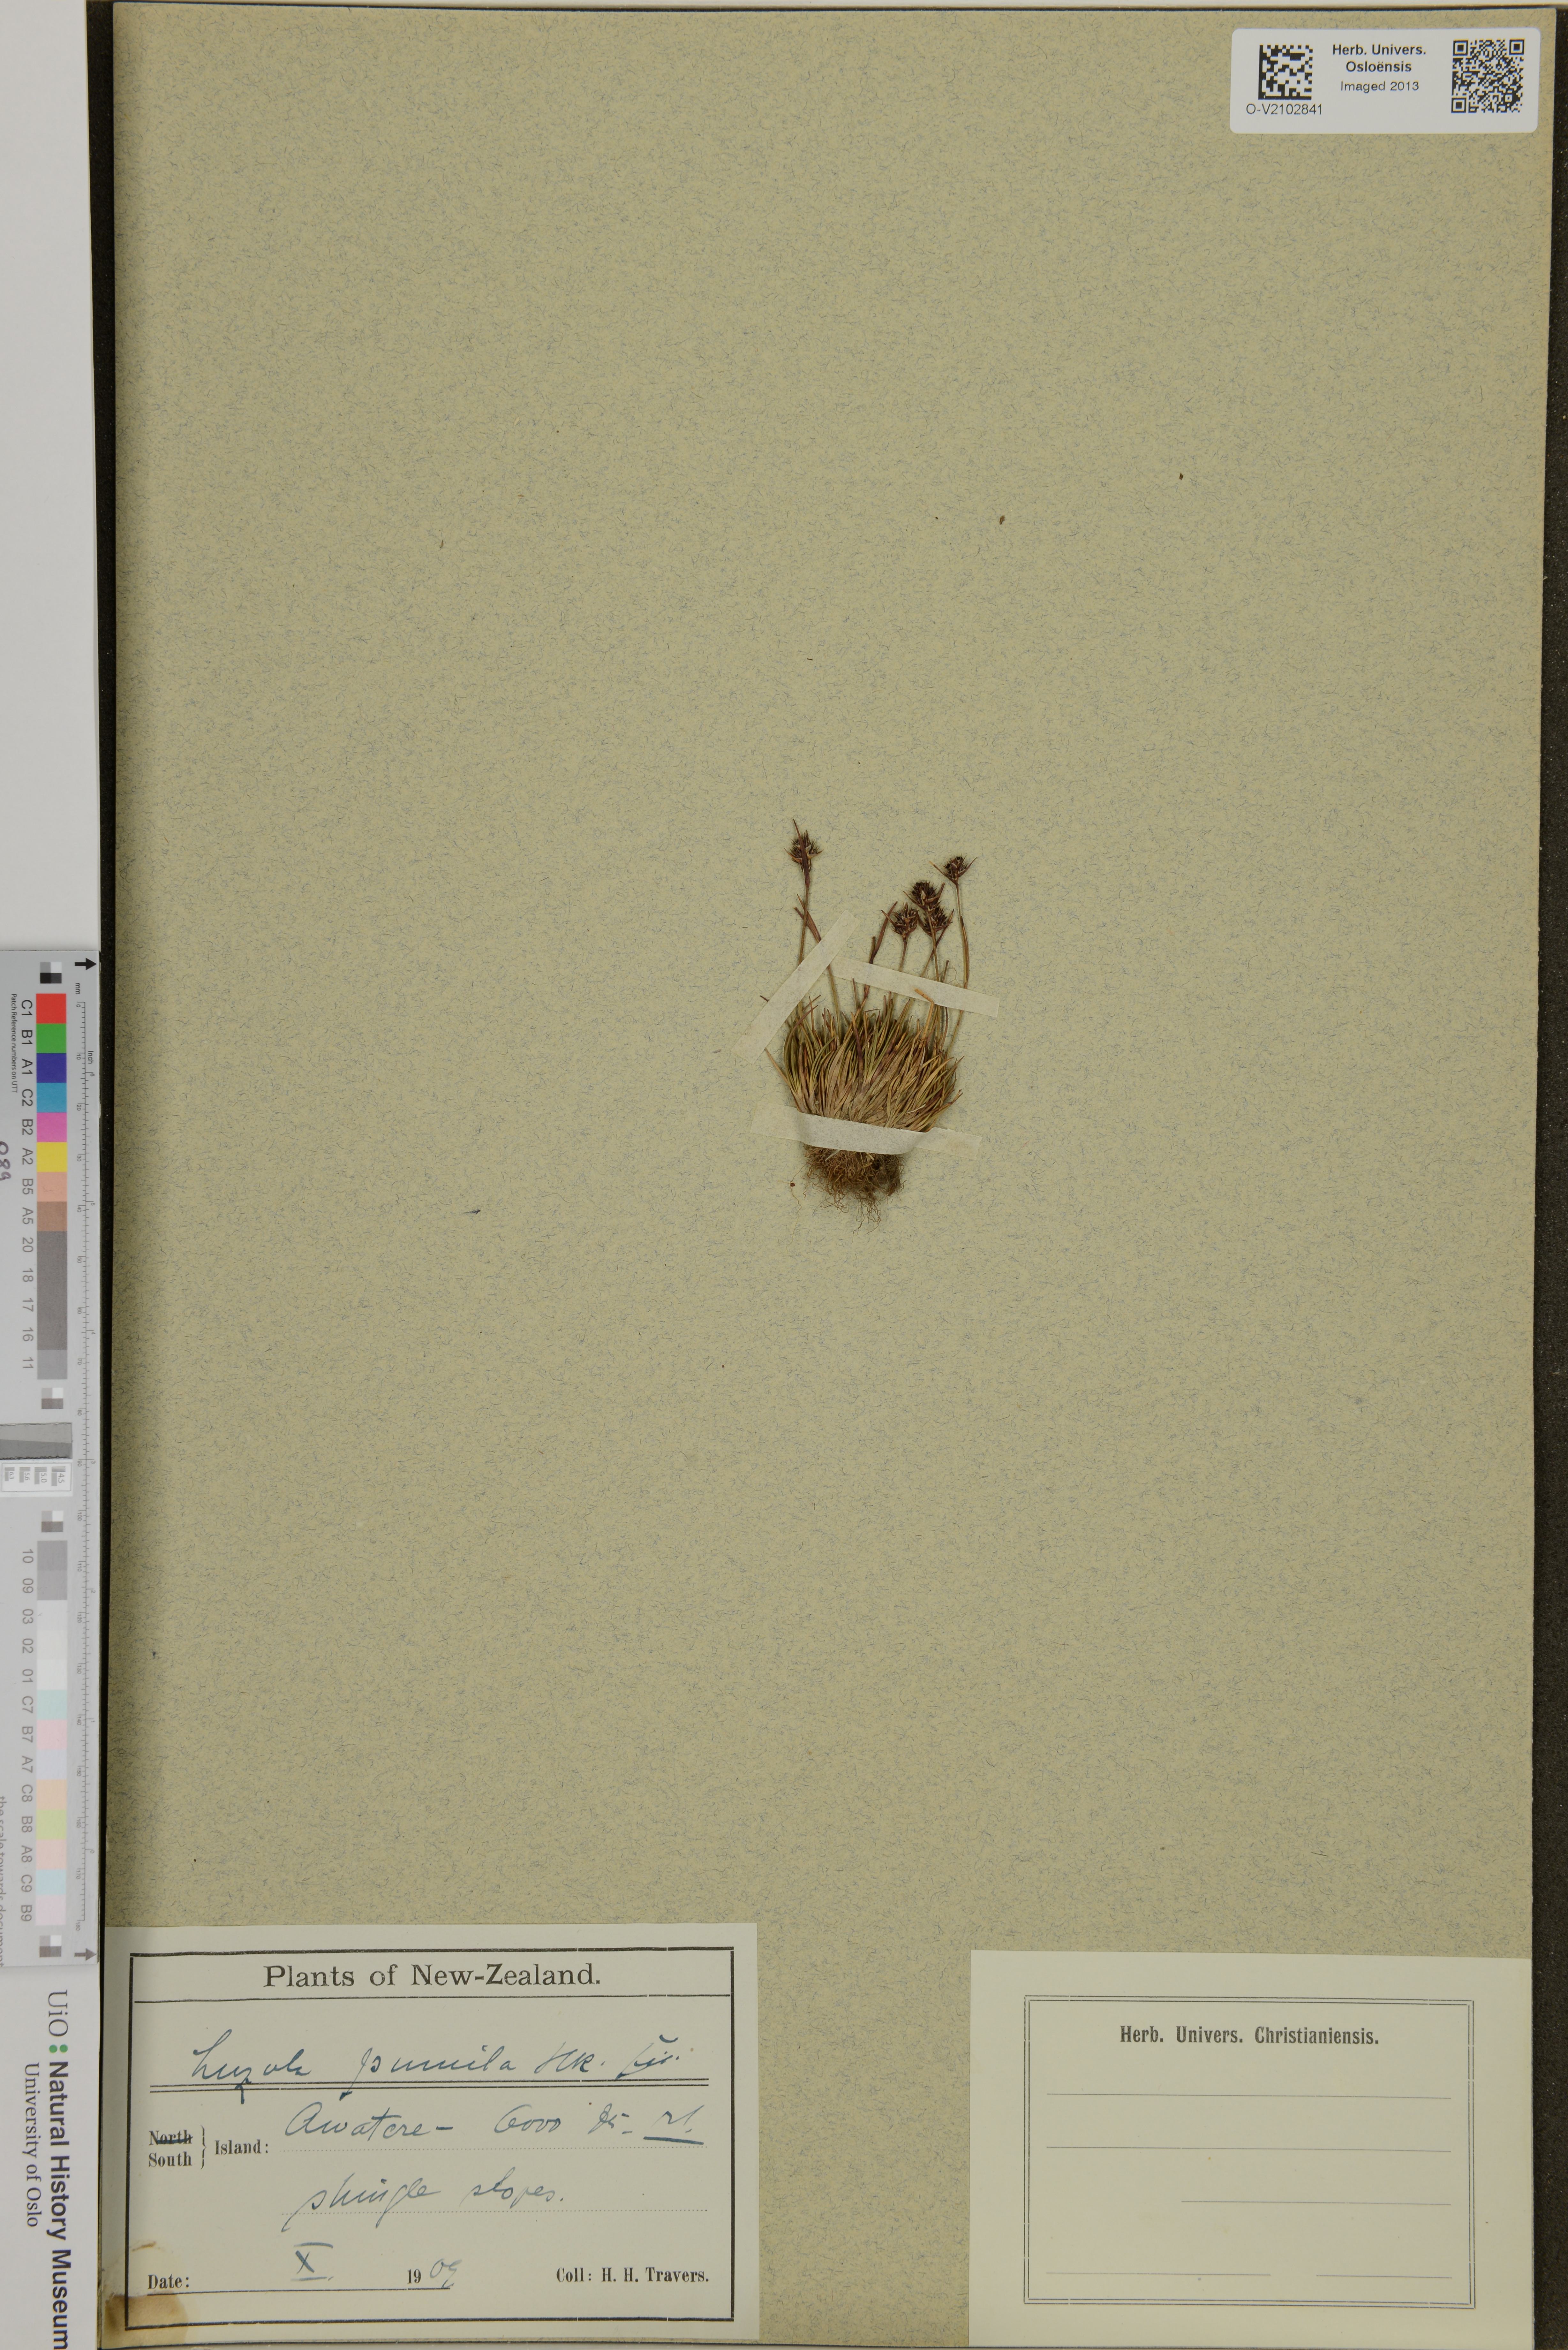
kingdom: Plantae
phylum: Tracheophyta
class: Liliopsida
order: Poales
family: Juncaceae
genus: Luzula
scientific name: Luzula pumila
